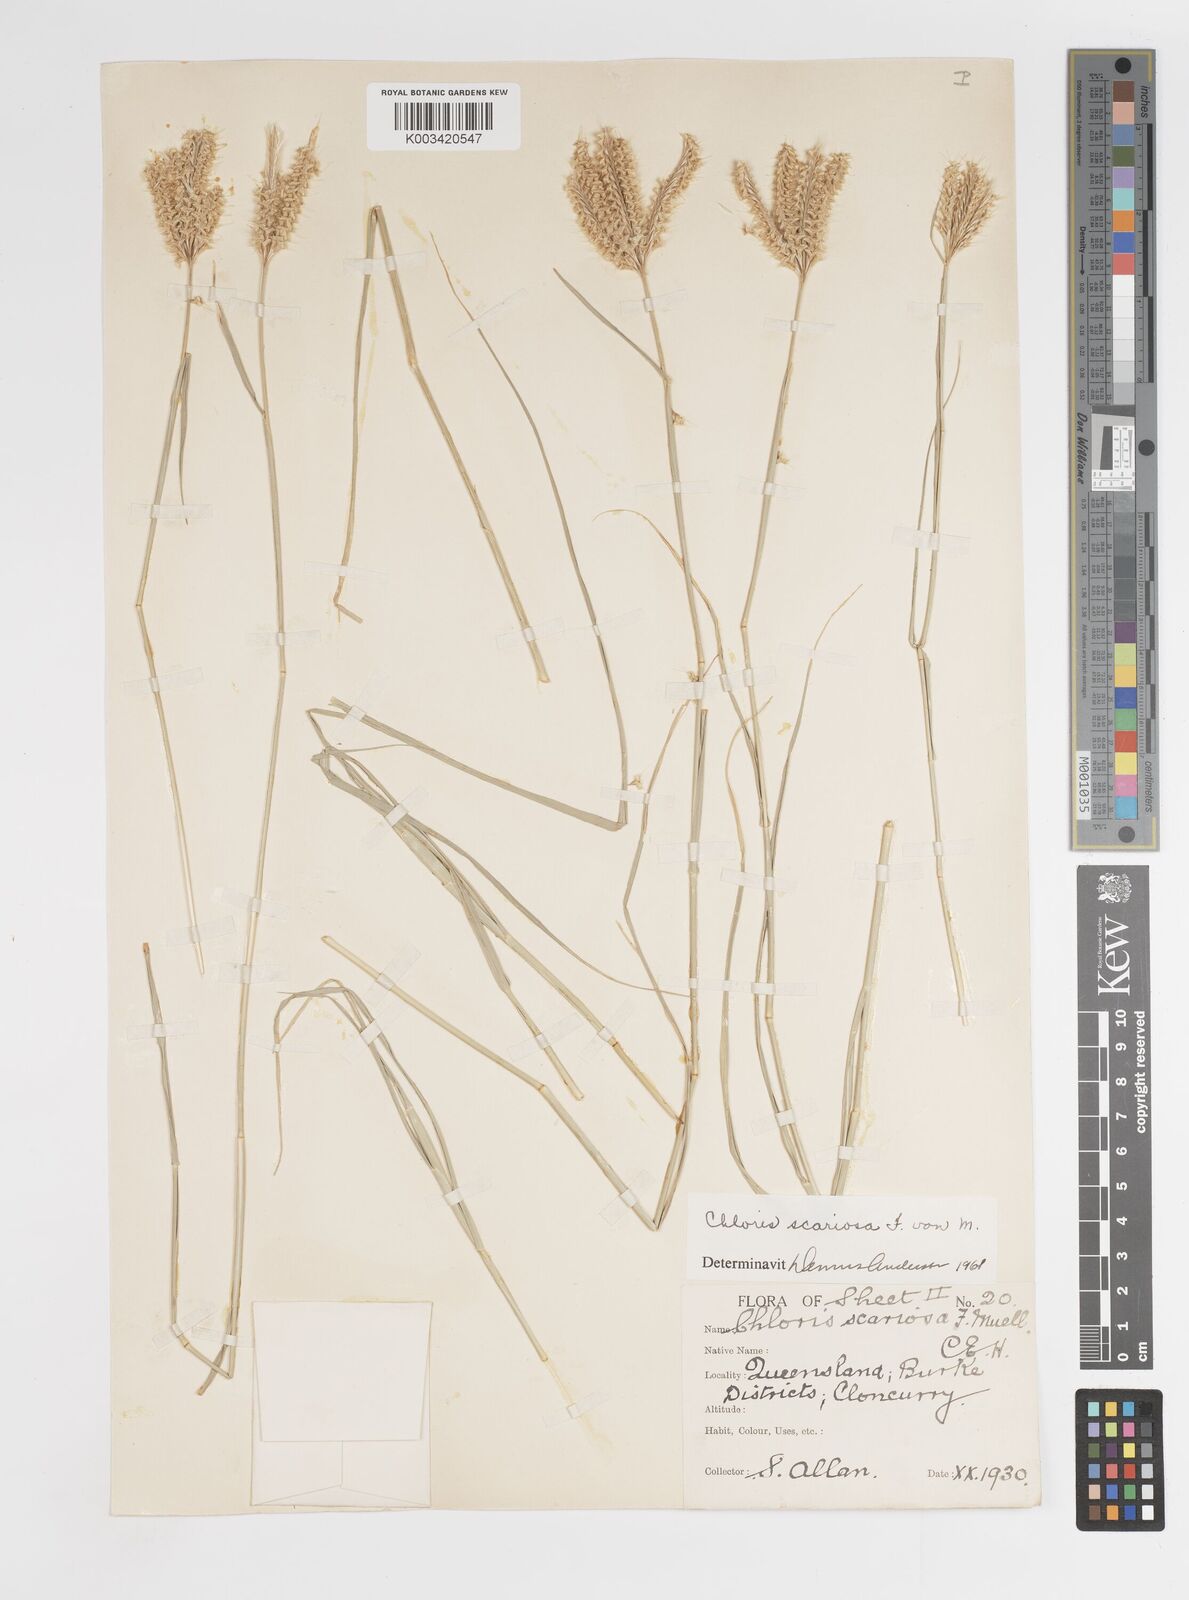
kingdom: Plantae
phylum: Tracheophyta
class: Liliopsida
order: Poales
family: Poaceae
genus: Oxychloris
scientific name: Oxychloris scariosa
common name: Winged windmill grass
